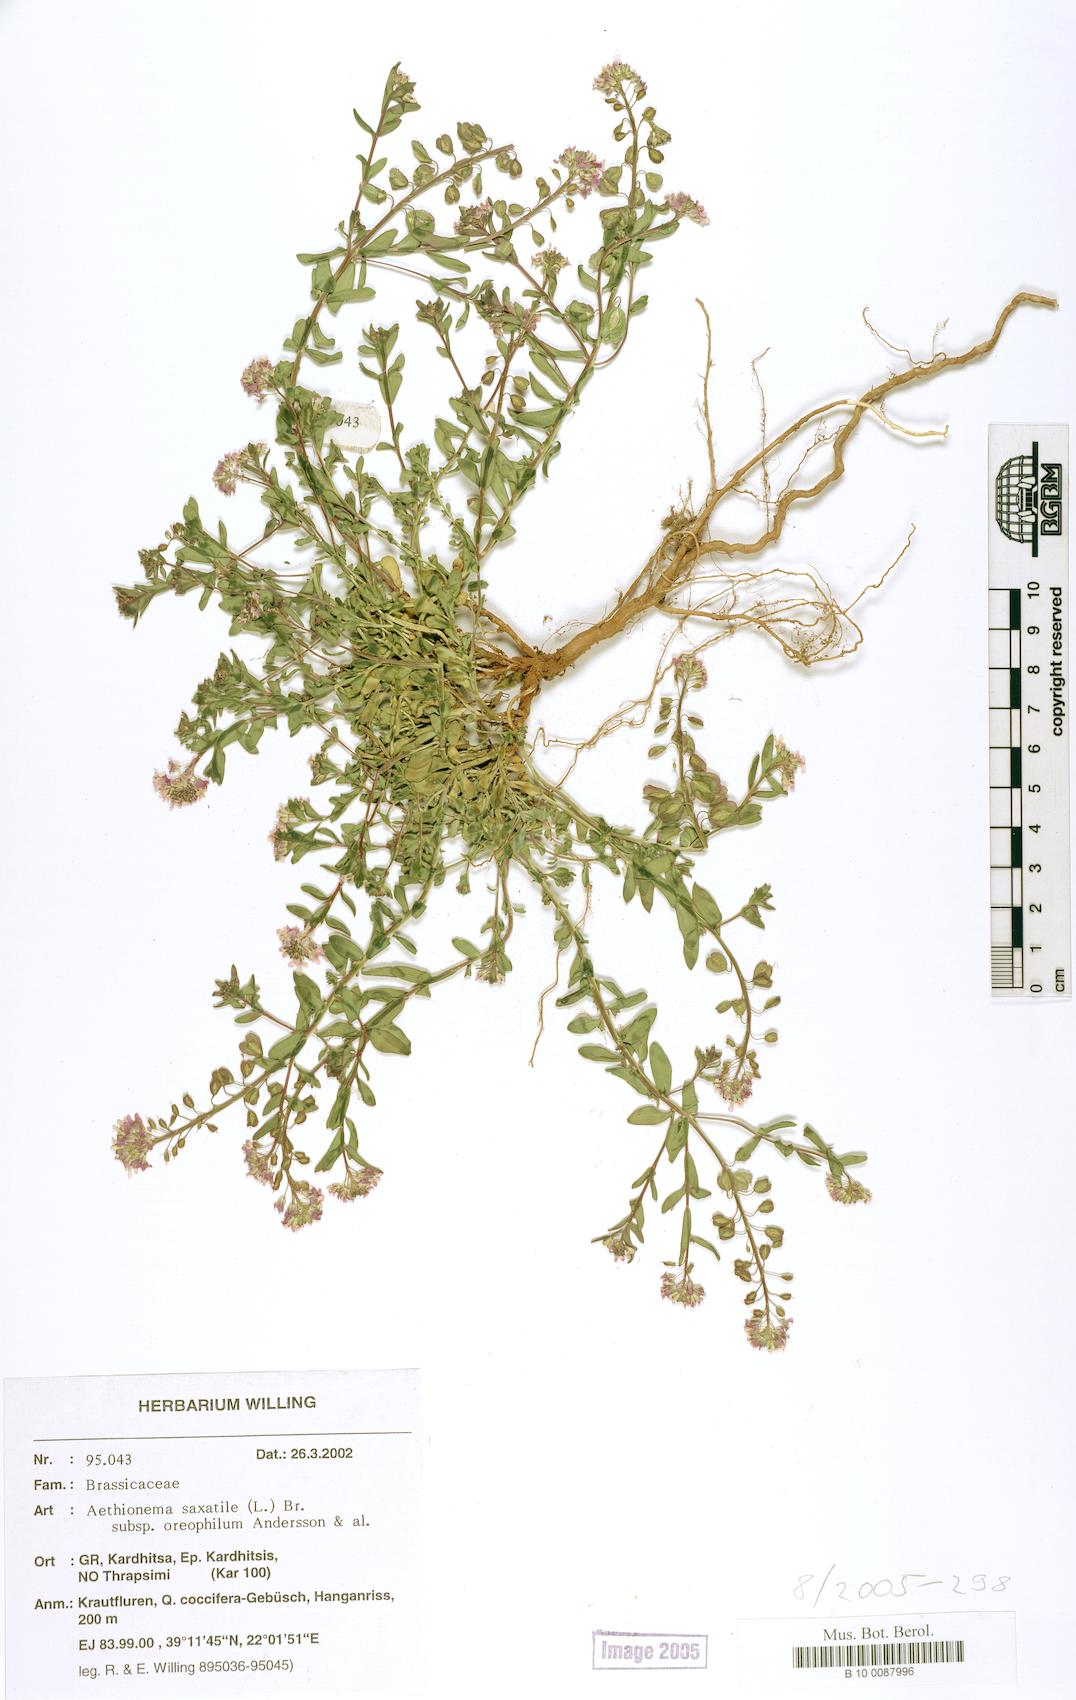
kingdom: Plantae
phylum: Tracheophyta
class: Magnoliopsida
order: Brassicales
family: Brassicaceae
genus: Aethionema
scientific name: Aethionema saxatile
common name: Burnt candytuft
